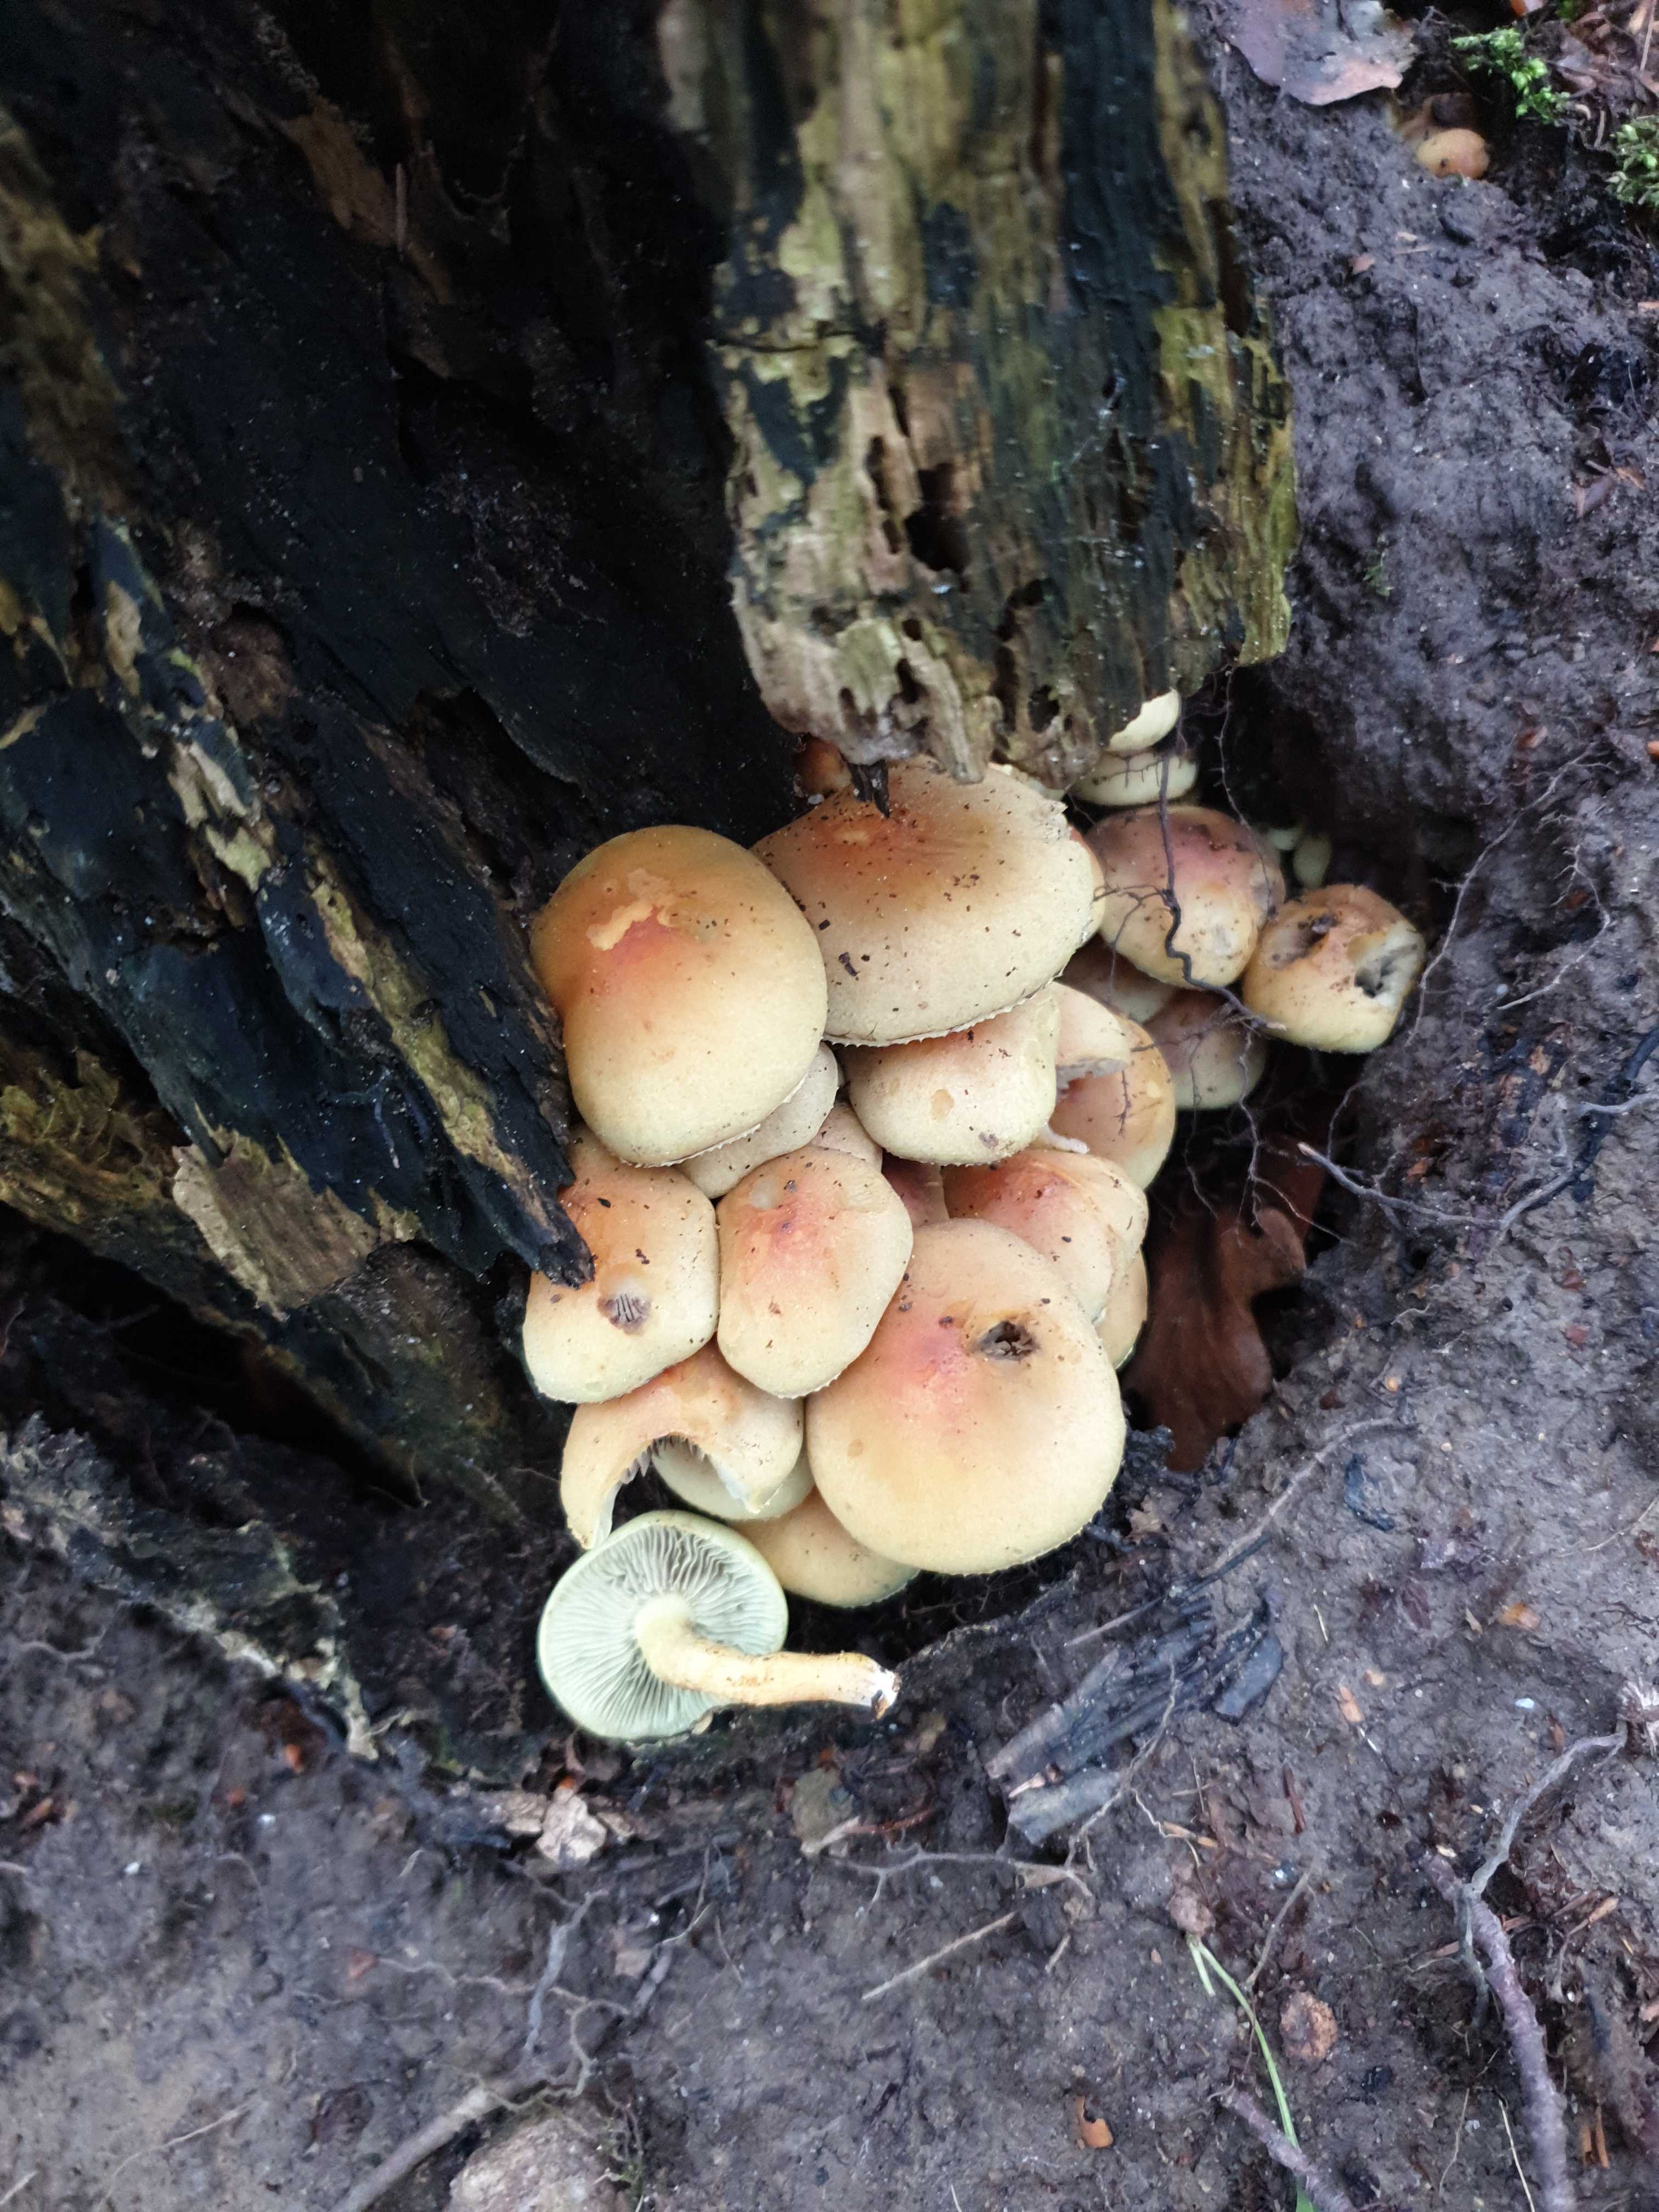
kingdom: Fungi
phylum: Basidiomycota
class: Agaricomycetes
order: Agaricales
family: Strophariaceae
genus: Hypholoma
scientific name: Hypholoma fasciculare
